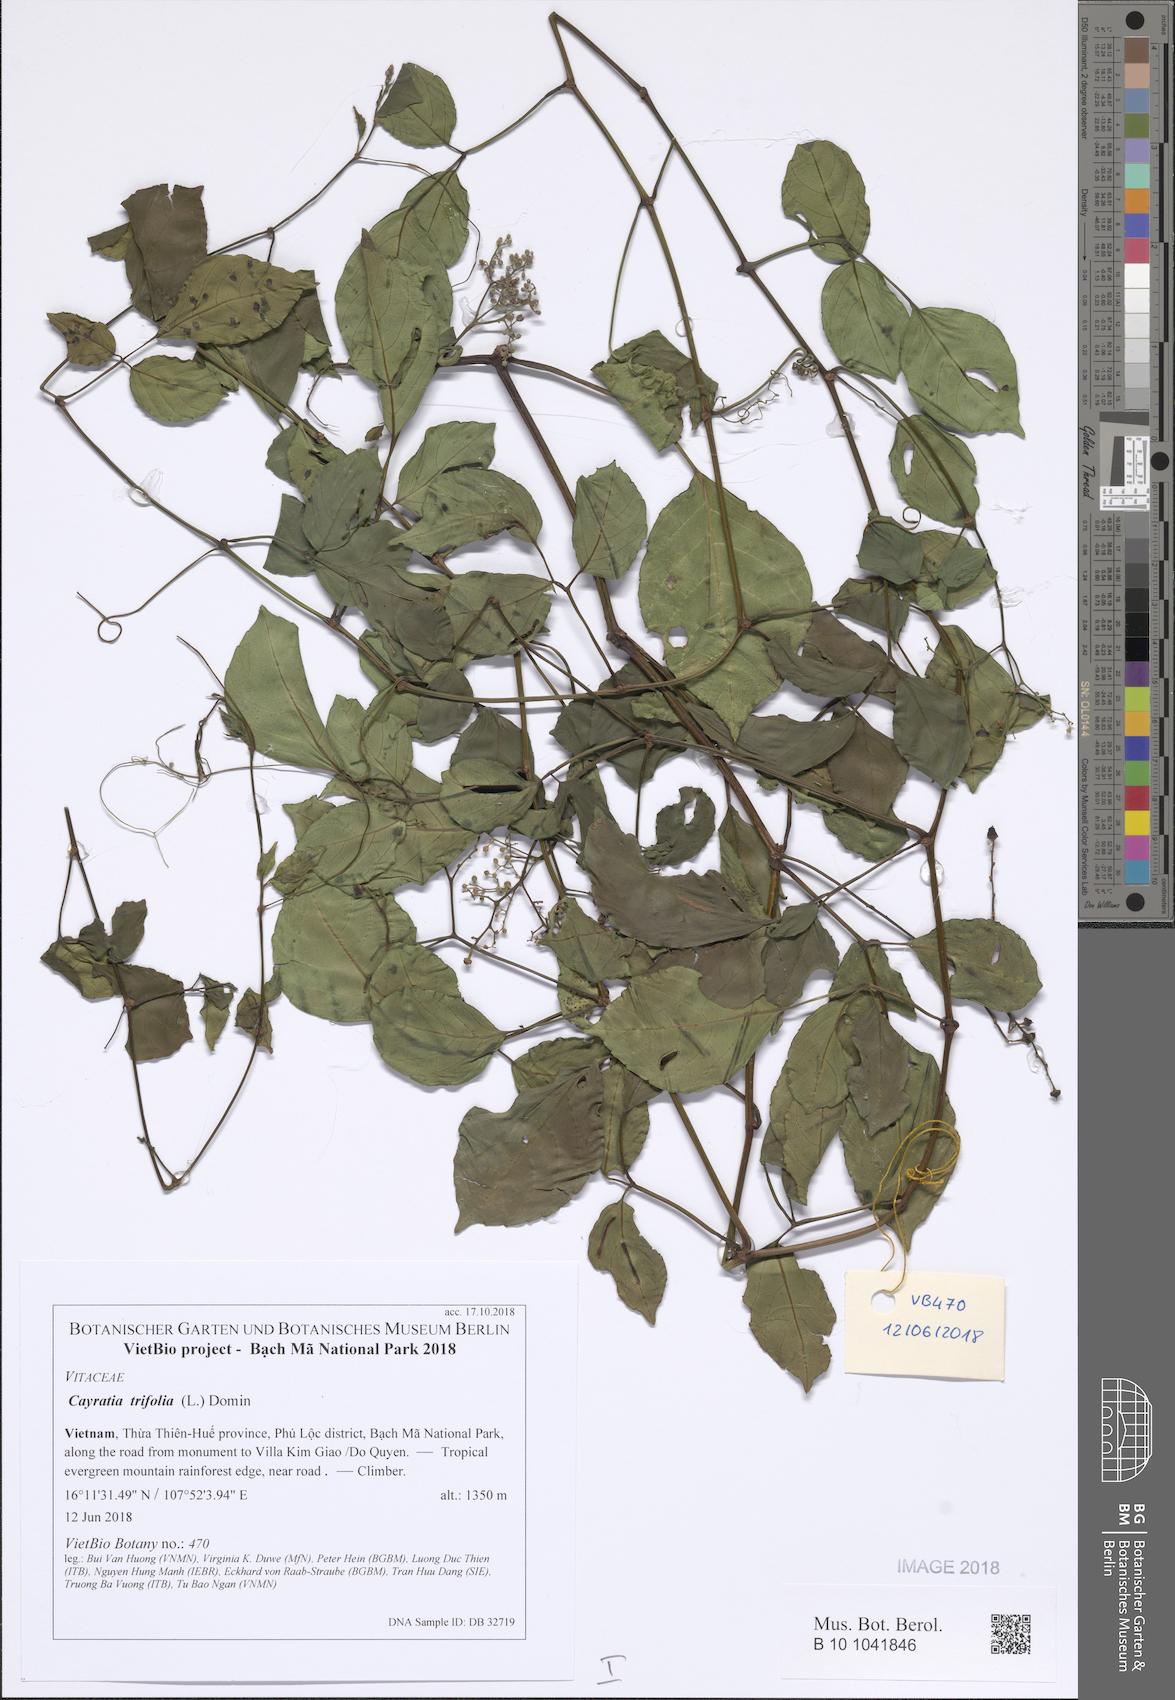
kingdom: Plantae
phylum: Tracheophyta
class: Magnoliopsida
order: Vitales
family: Vitaceae
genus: Causonis
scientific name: Causonis trifolia
